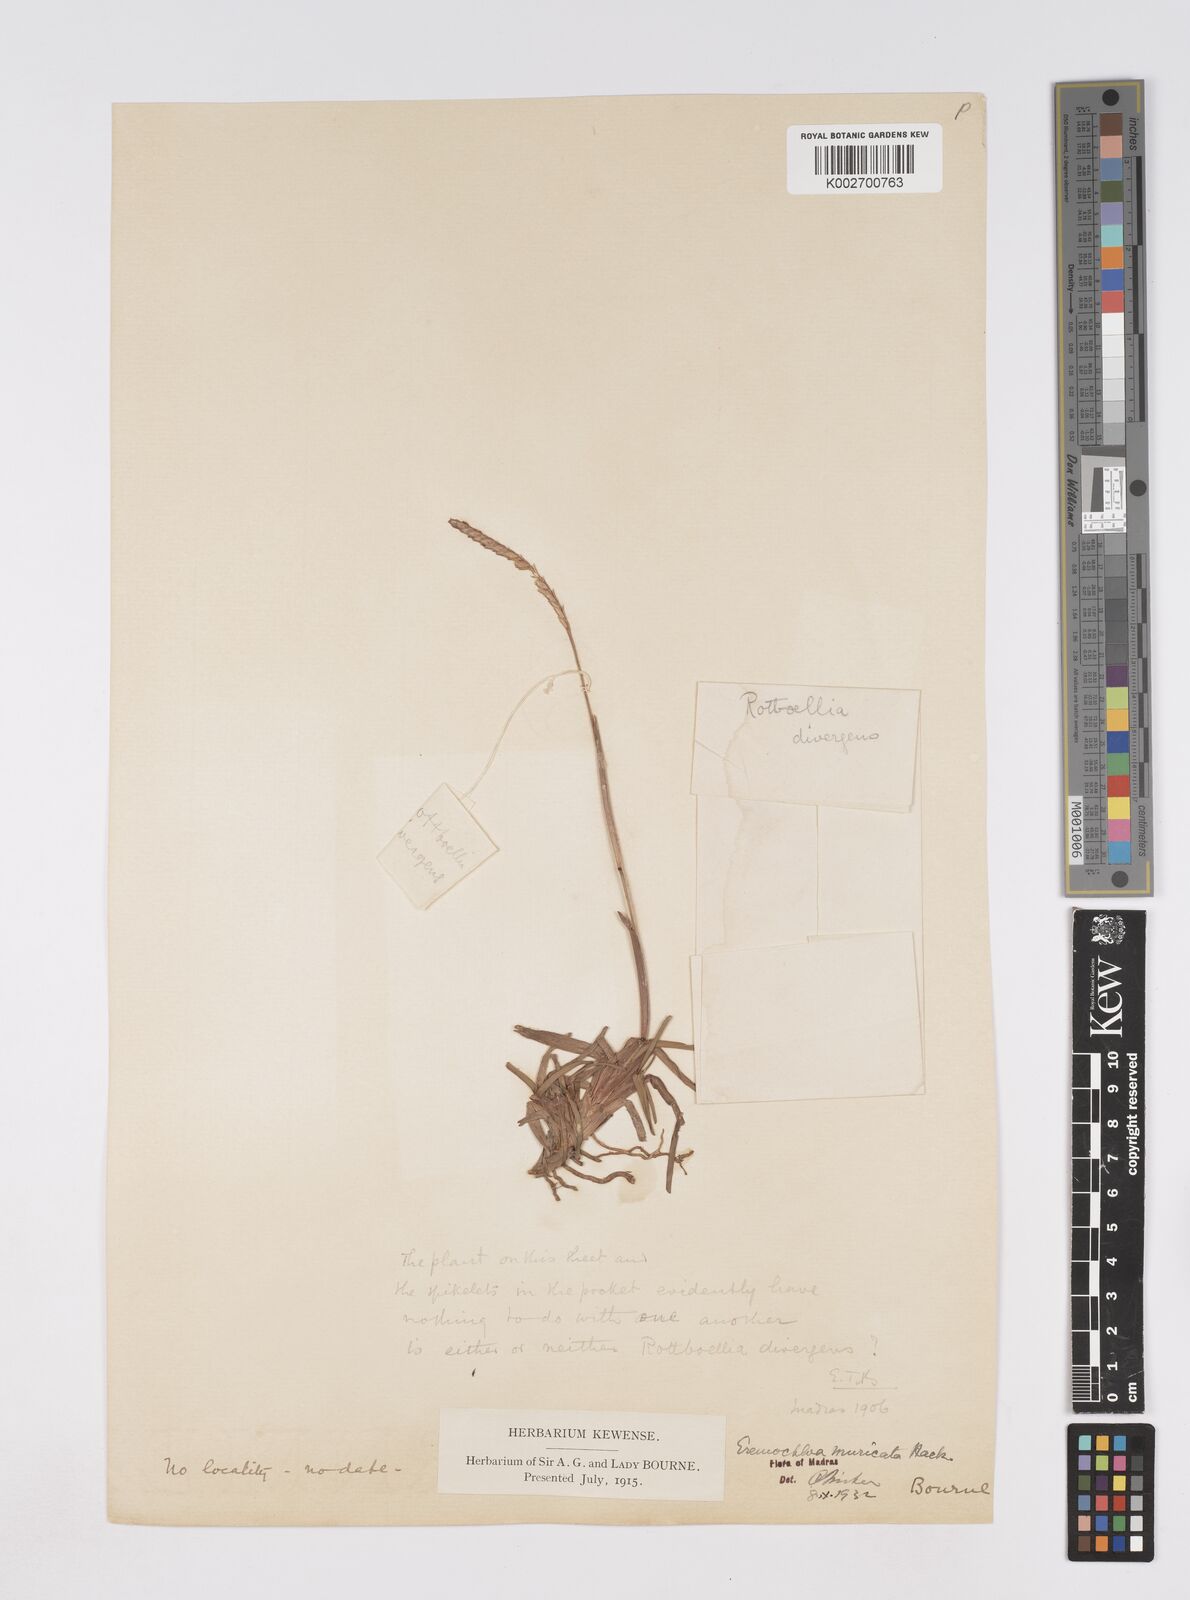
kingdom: Plantae
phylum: Tracheophyta
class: Liliopsida
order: Poales
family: Poaceae
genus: Eremochloa
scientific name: Eremochloa muricata
